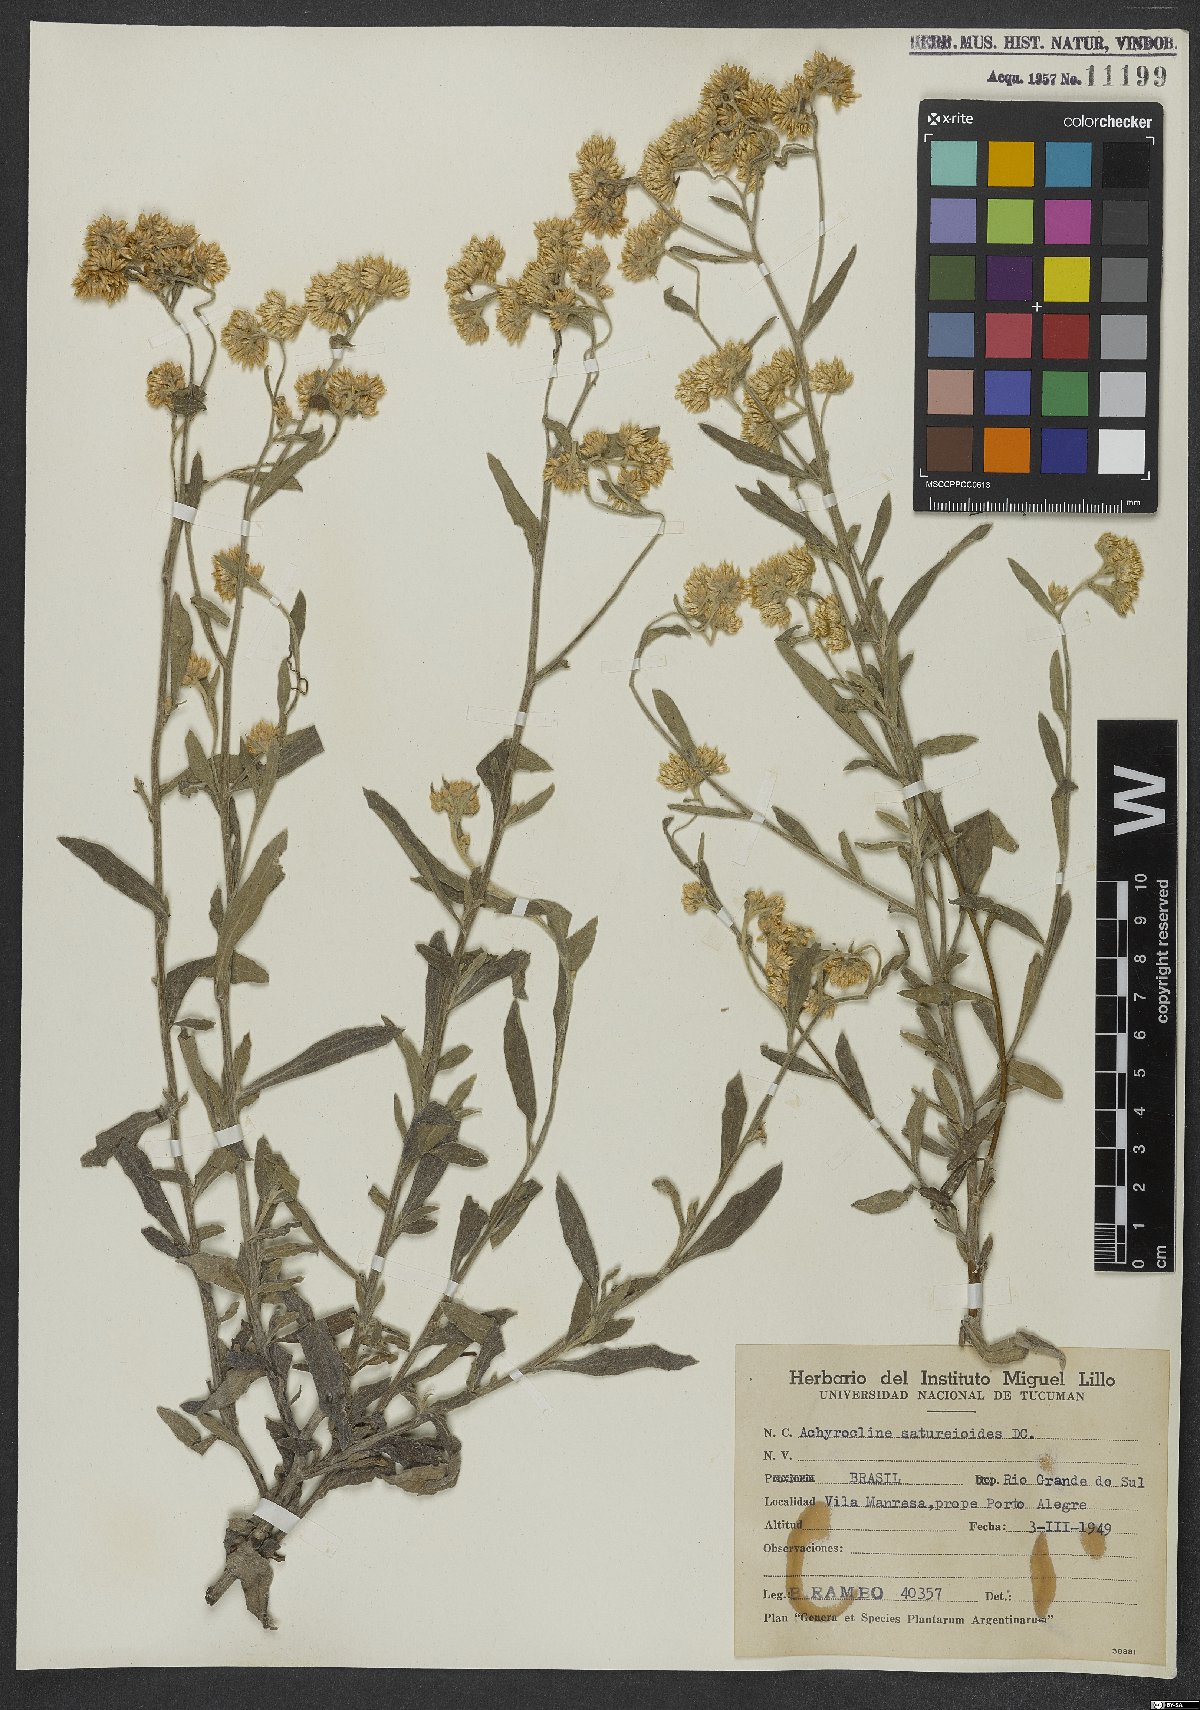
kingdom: Plantae
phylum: Tracheophyta
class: Magnoliopsida
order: Asterales
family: Asteraceae
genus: Achyrocline
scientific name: Achyrocline satureioides
